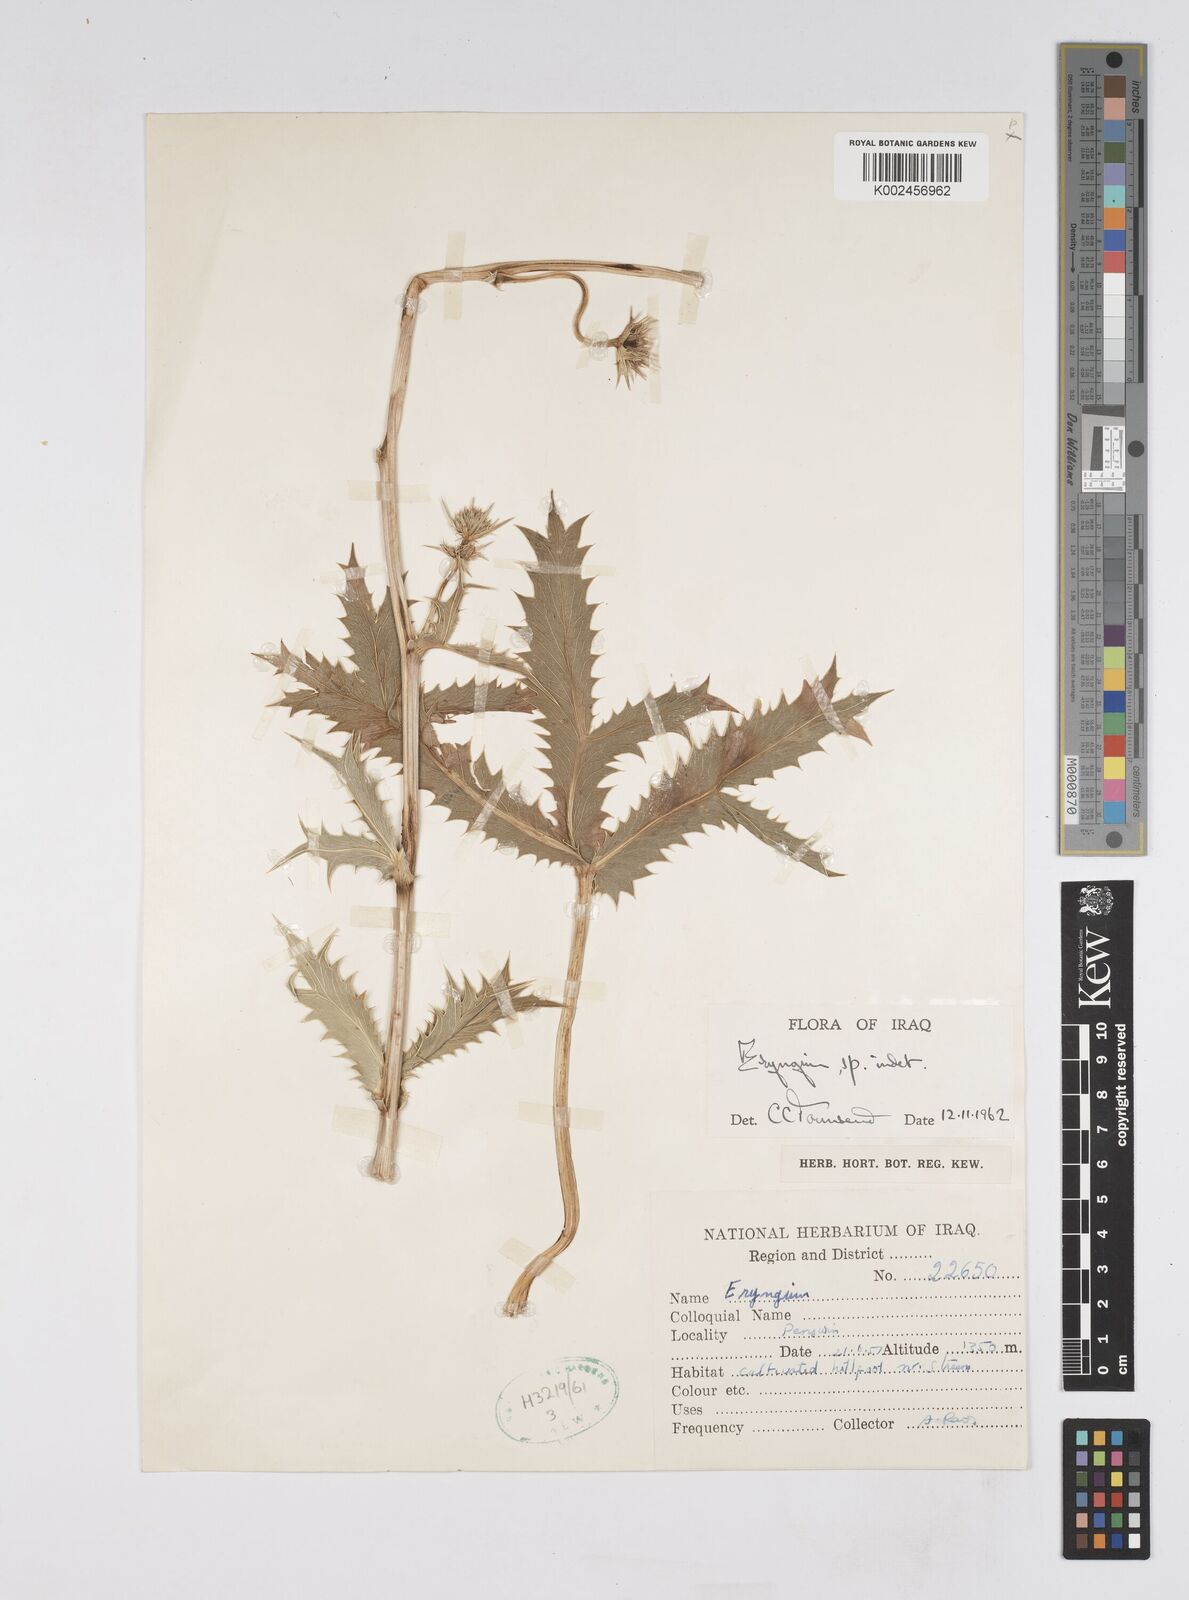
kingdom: Plantae
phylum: Tracheophyta
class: Magnoliopsida
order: Apiales
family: Apiaceae
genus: Eryngium
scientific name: Eryngium
